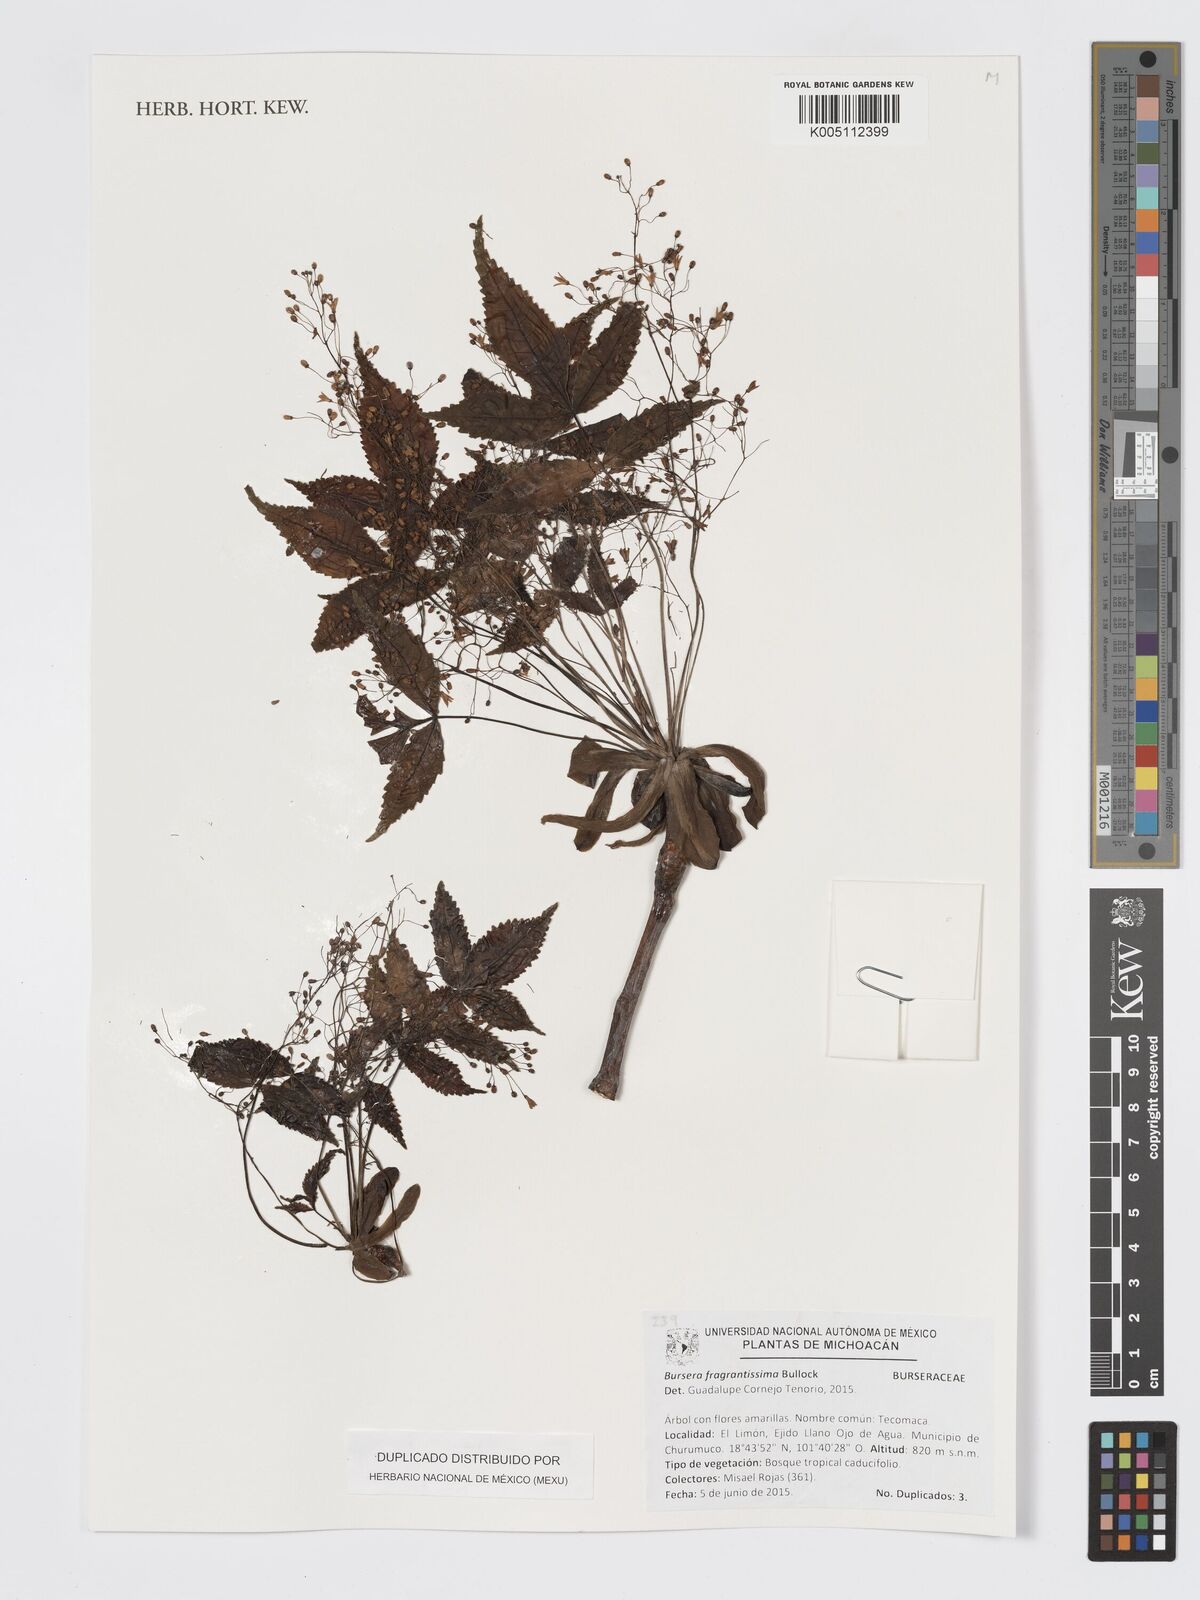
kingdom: Plantae
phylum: Tracheophyta
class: Magnoliopsida
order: Sapindales
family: Burseraceae
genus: Bursera
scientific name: Bursera fragrantissima
